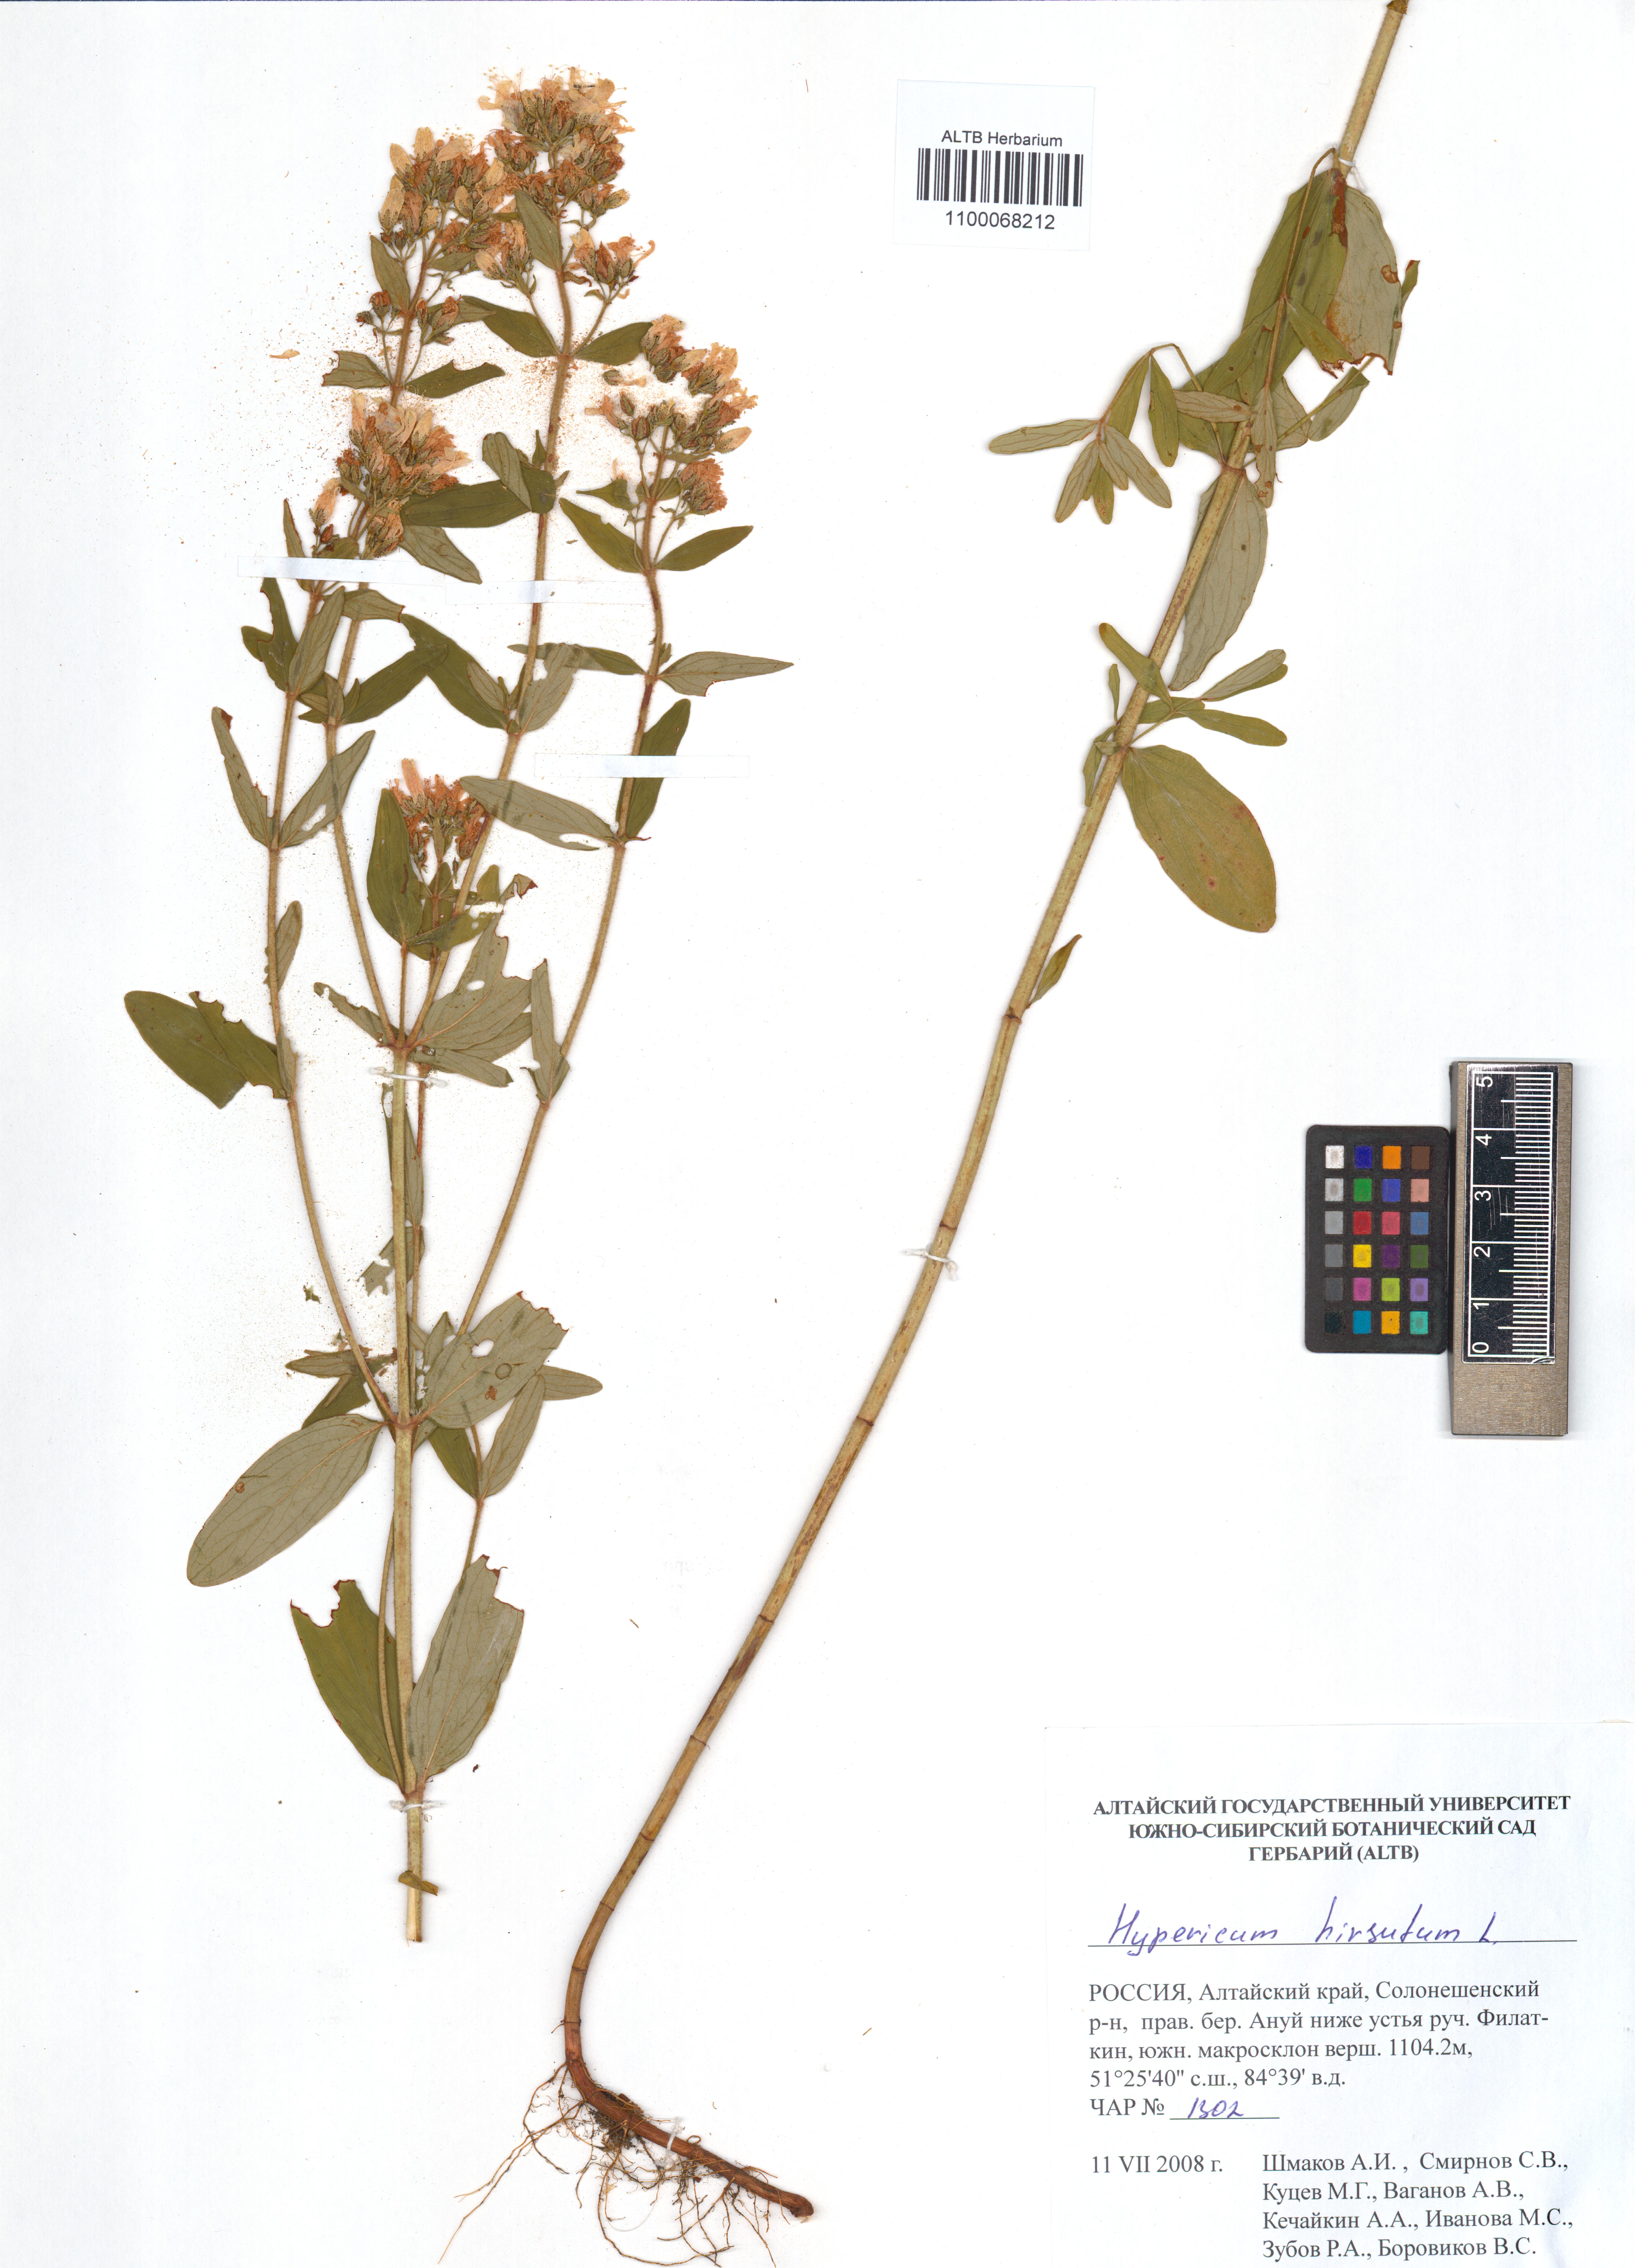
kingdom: Plantae
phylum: Tracheophyta
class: Magnoliopsida
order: Malpighiales
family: Hypericaceae
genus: Hypericum
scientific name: Hypericum hirsutum
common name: Hairy st. john's-wort
